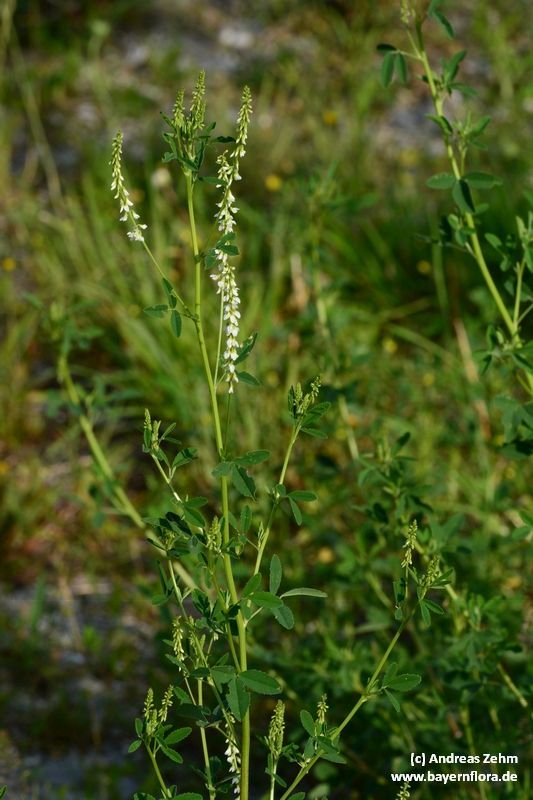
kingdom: Plantae
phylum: Tracheophyta
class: Magnoliopsida
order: Fabales
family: Fabaceae
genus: Melilotus
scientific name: Melilotus albus
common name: White melilot
